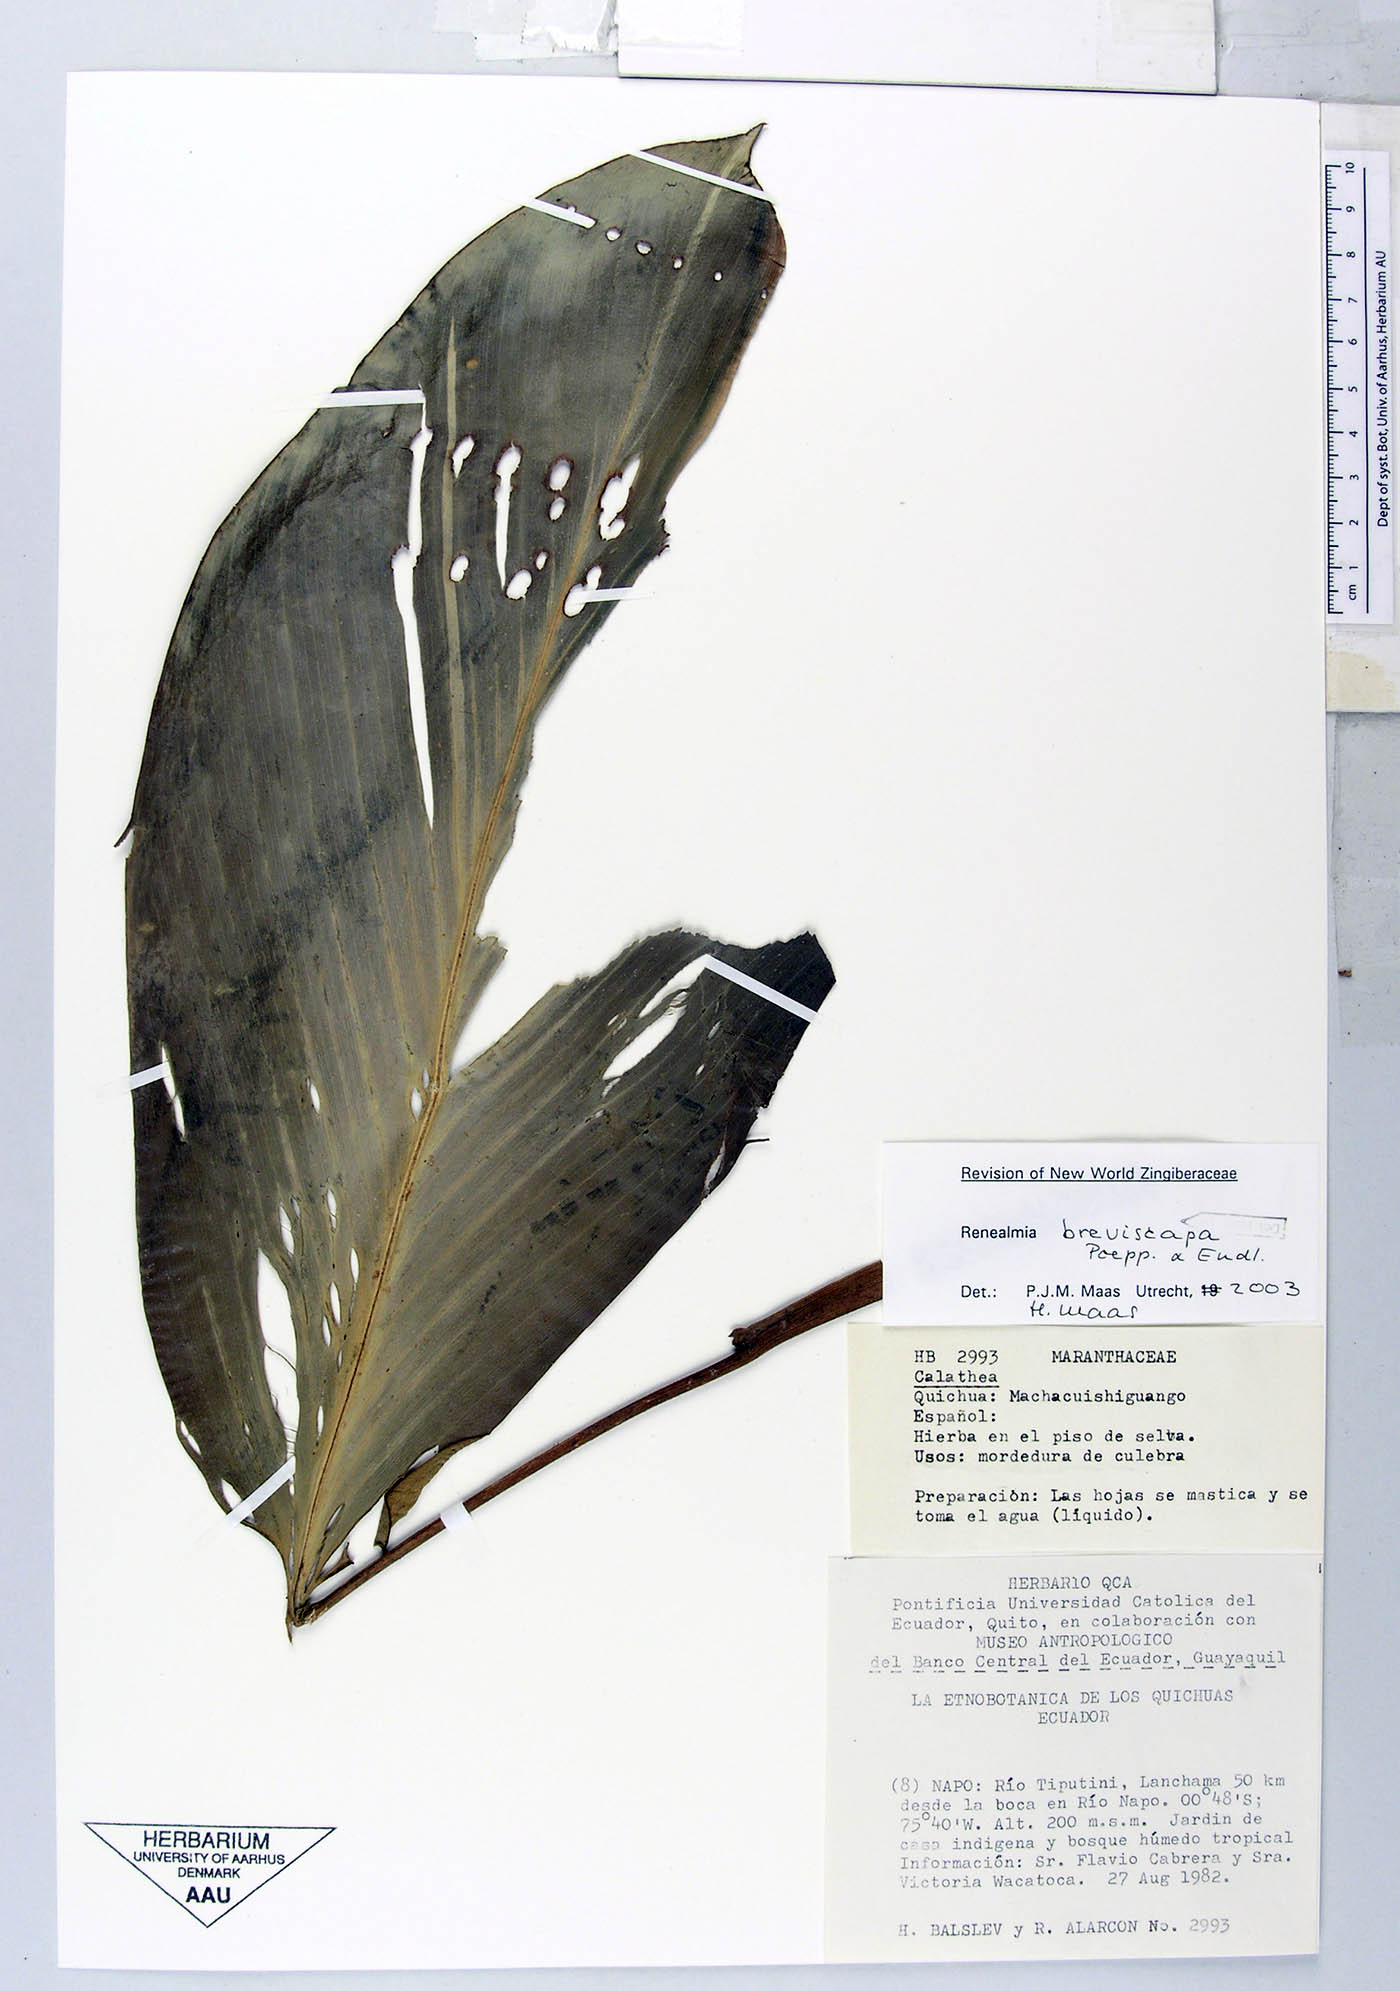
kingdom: Plantae
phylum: Tracheophyta
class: Liliopsida
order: Zingiberales
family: Zingiberaceae
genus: Renealmia
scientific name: Renealmia breviscapa
